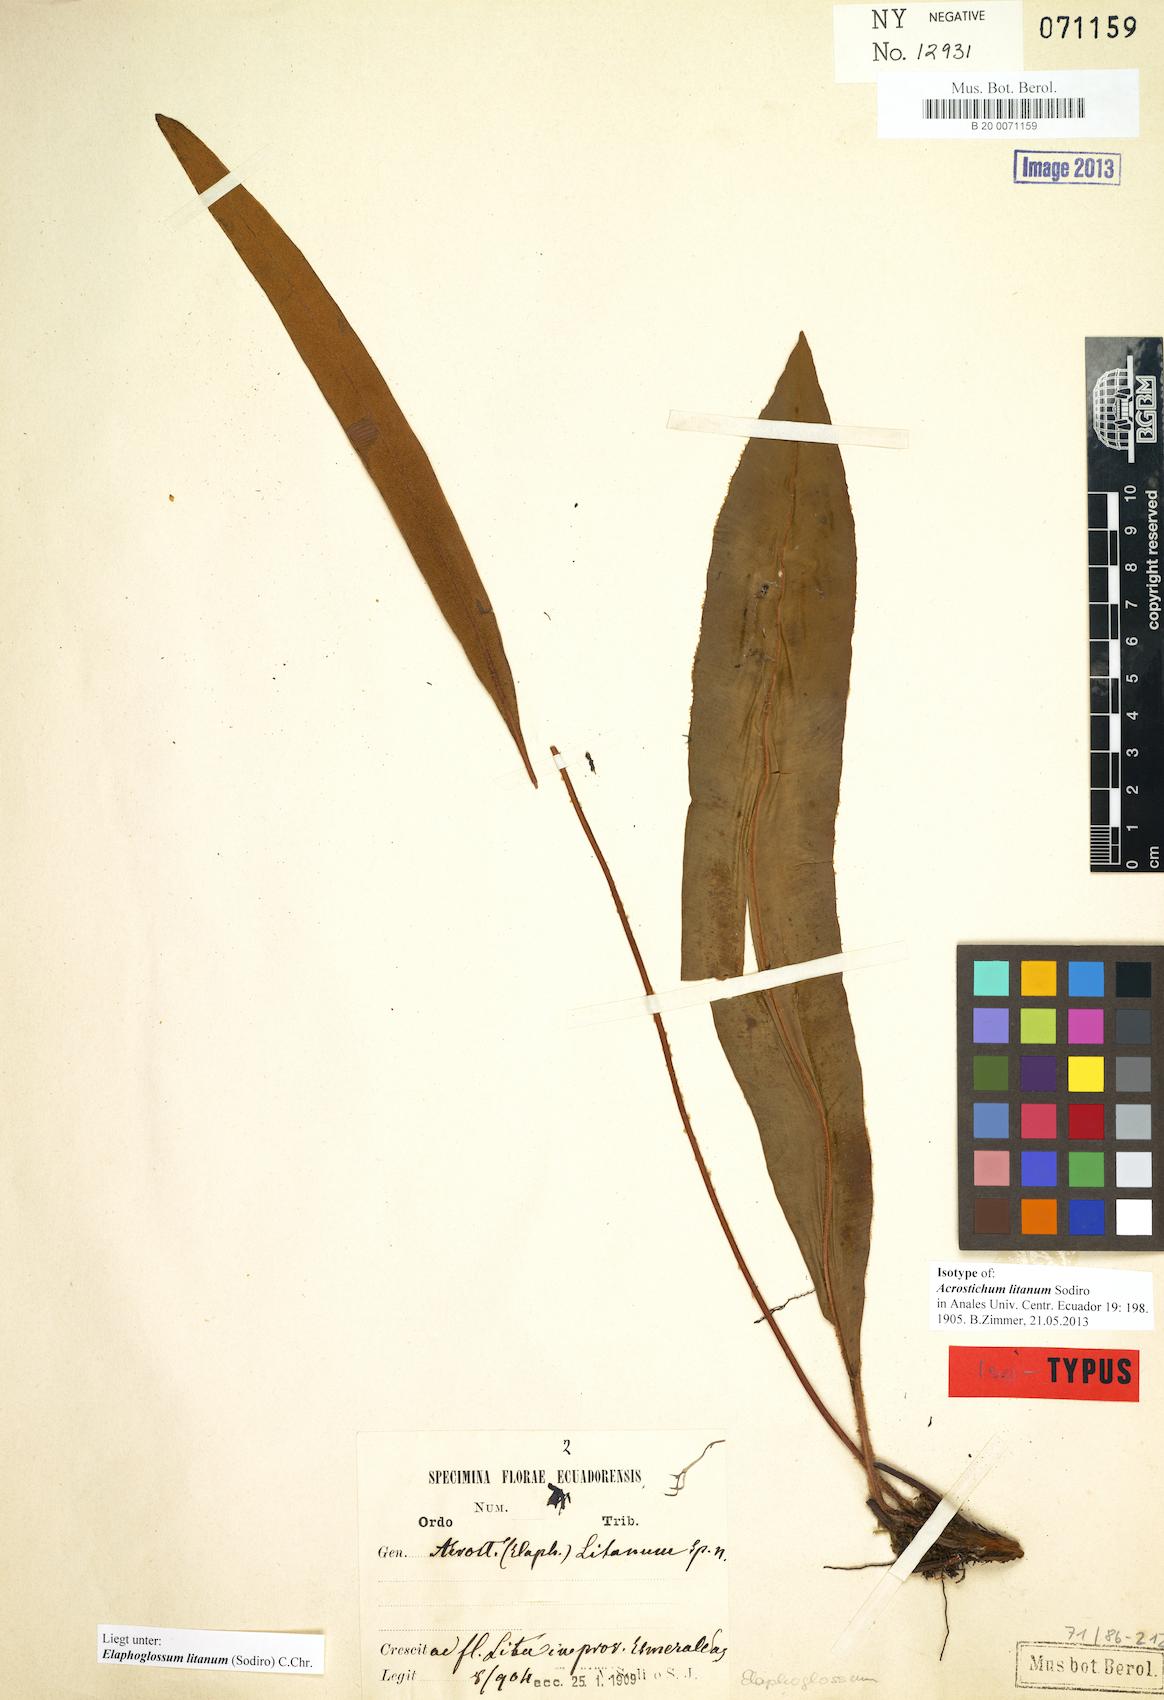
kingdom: Plantae
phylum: Tracheophyta
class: Polypodiopsida
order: Polypodiales
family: Dryopteridaceae
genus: Elaphoglossum
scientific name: Elaphoglossum litanum
